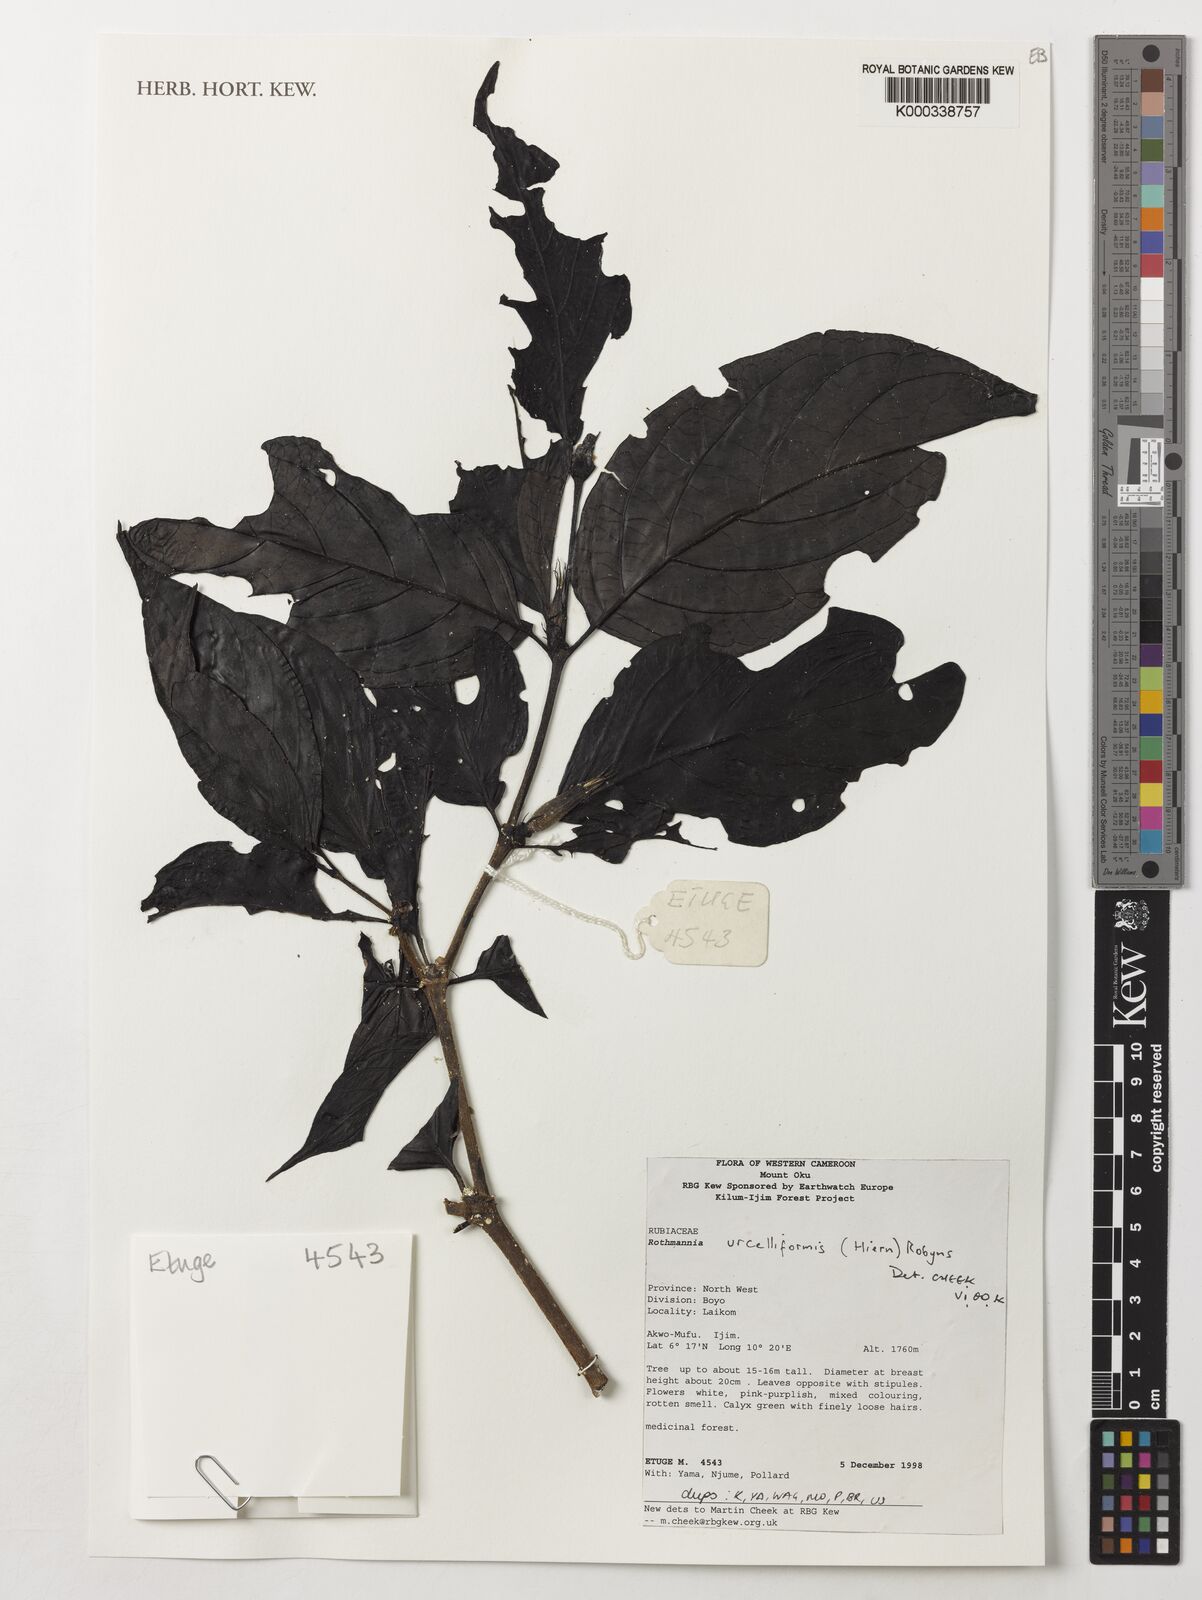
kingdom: Plantae
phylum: Tracheophyta
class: Magnoliopsida
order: Gentianales
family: Rubiaceae
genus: Rothmannia
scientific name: Rothmannia urcelliformis
